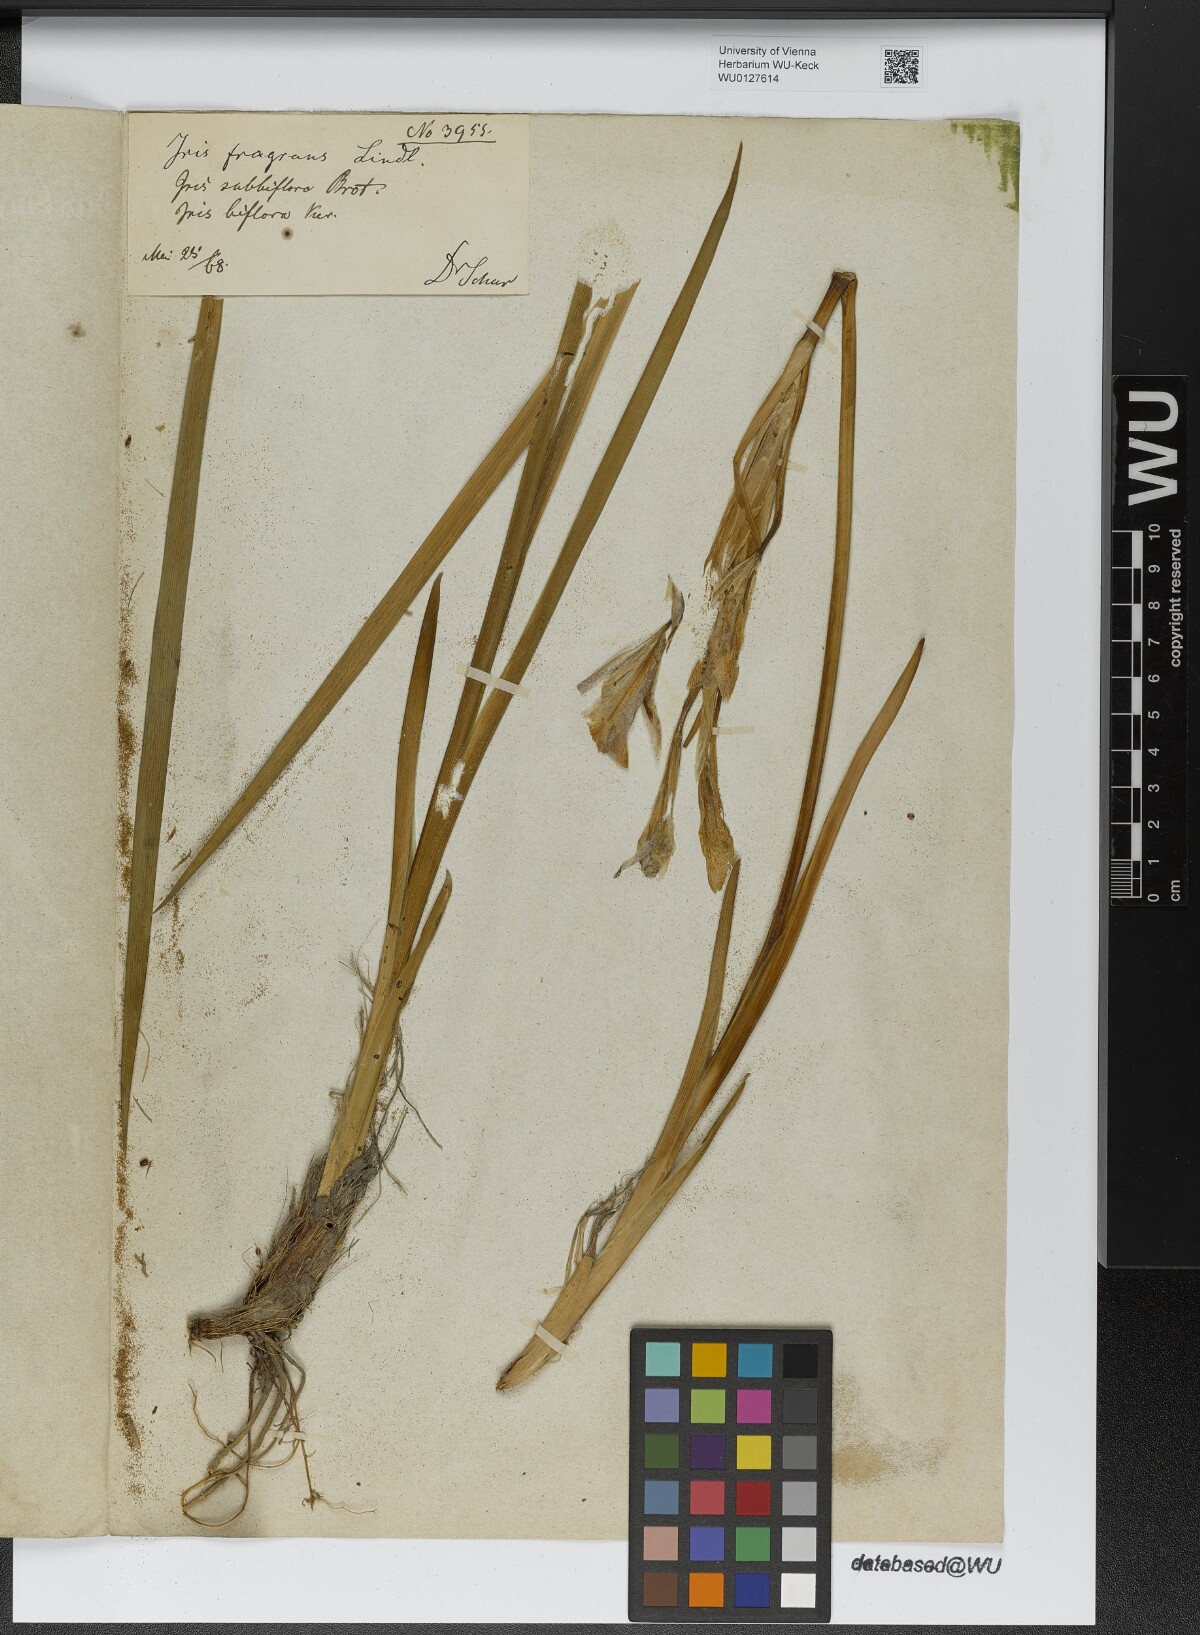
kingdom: Plantae
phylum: Tracheophyta
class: Liliopsida
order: Asparagales
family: Iridaceae
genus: Iris
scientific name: Iris lactea
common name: White-flower chinese iris
